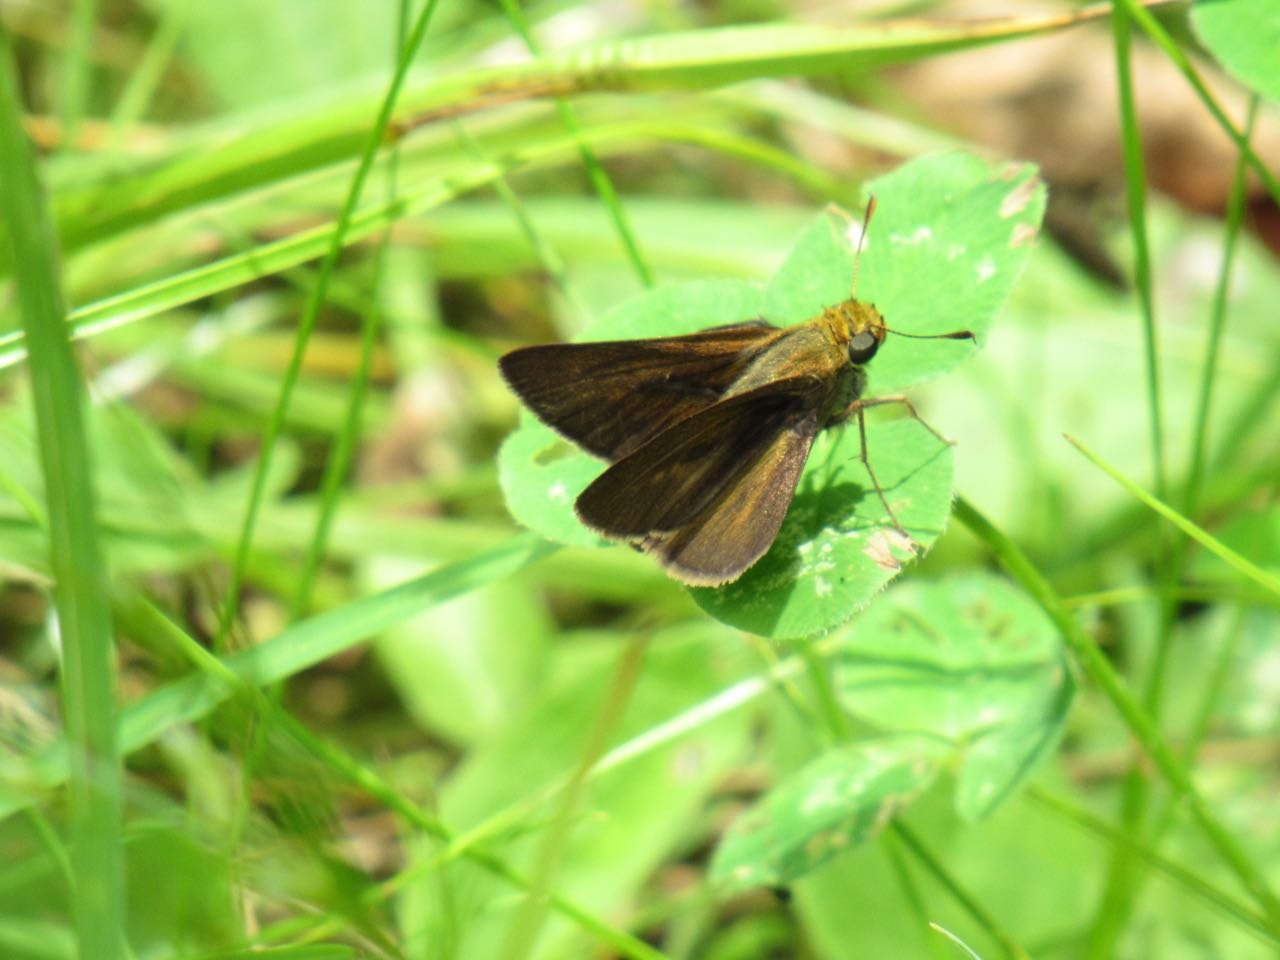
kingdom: Animalia
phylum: Arthropoda
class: Insecta
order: Lepidoptera
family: Hesperiidae
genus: Euphyes
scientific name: Euphyes vestris
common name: Dun Skipper
